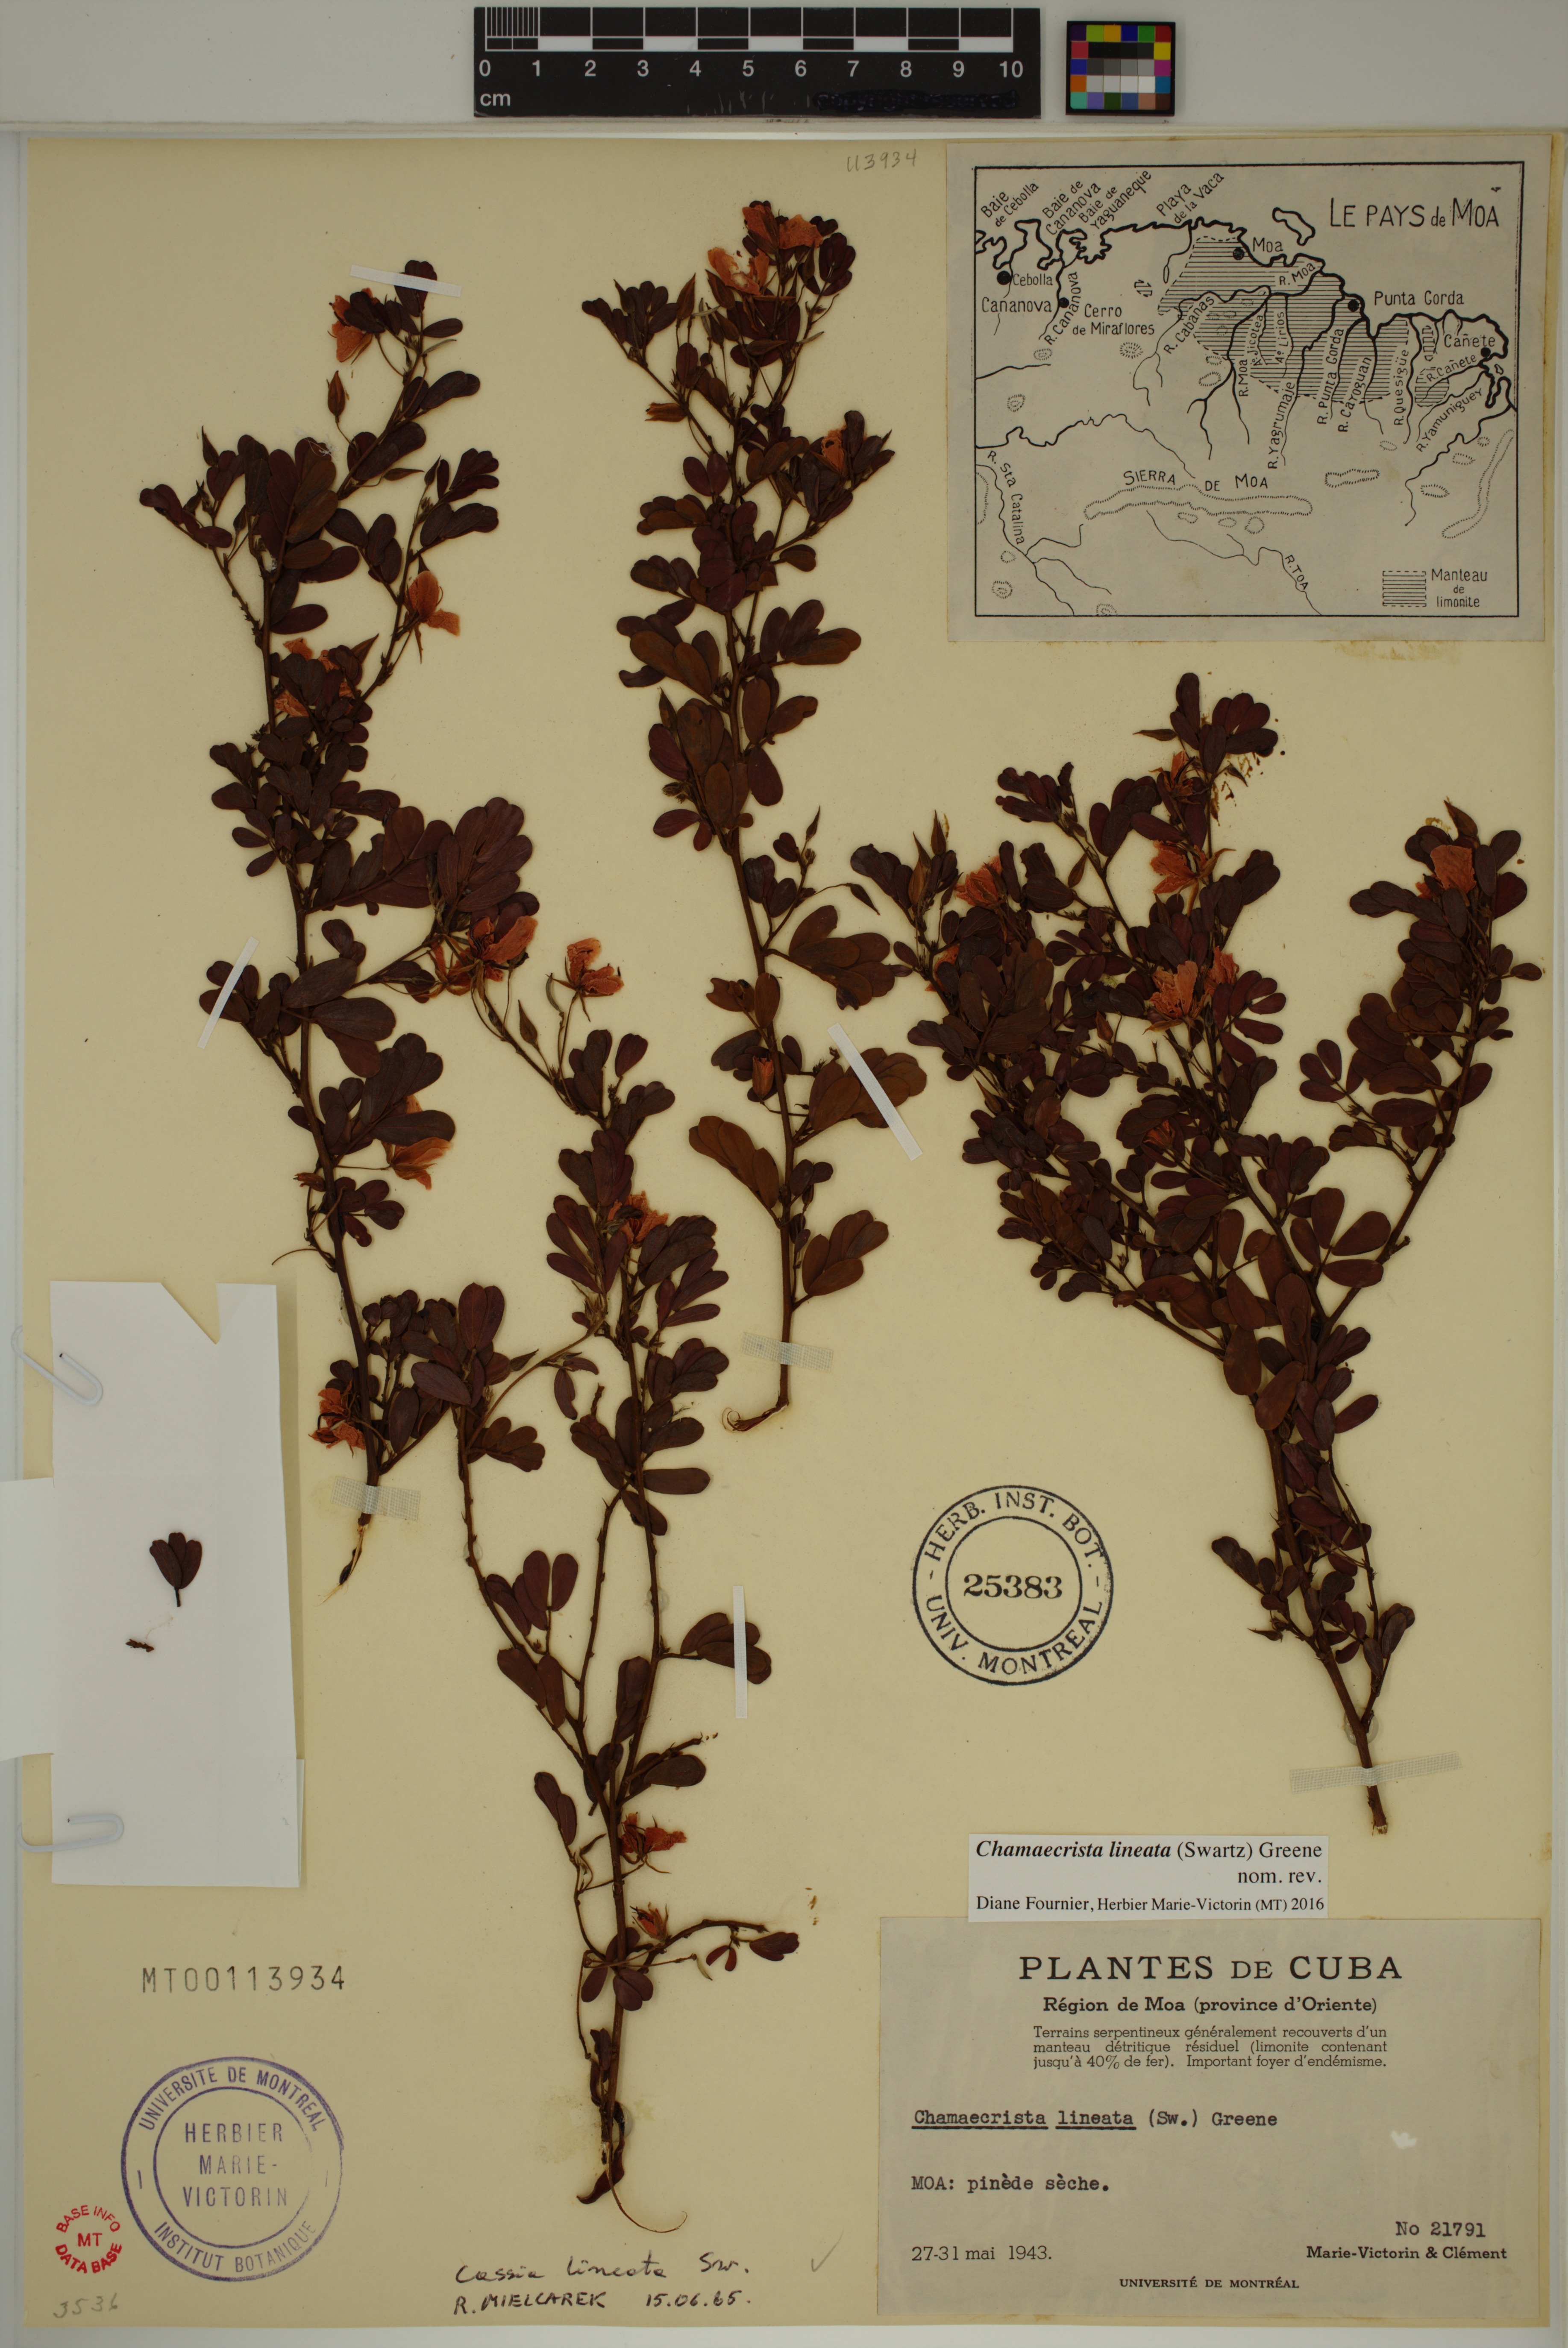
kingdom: Plantae
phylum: Tracheophyta
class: Magnoliopsida
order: Fabales
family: Fabaceae
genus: Chamaecrista
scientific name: Chamaecrista lineata
